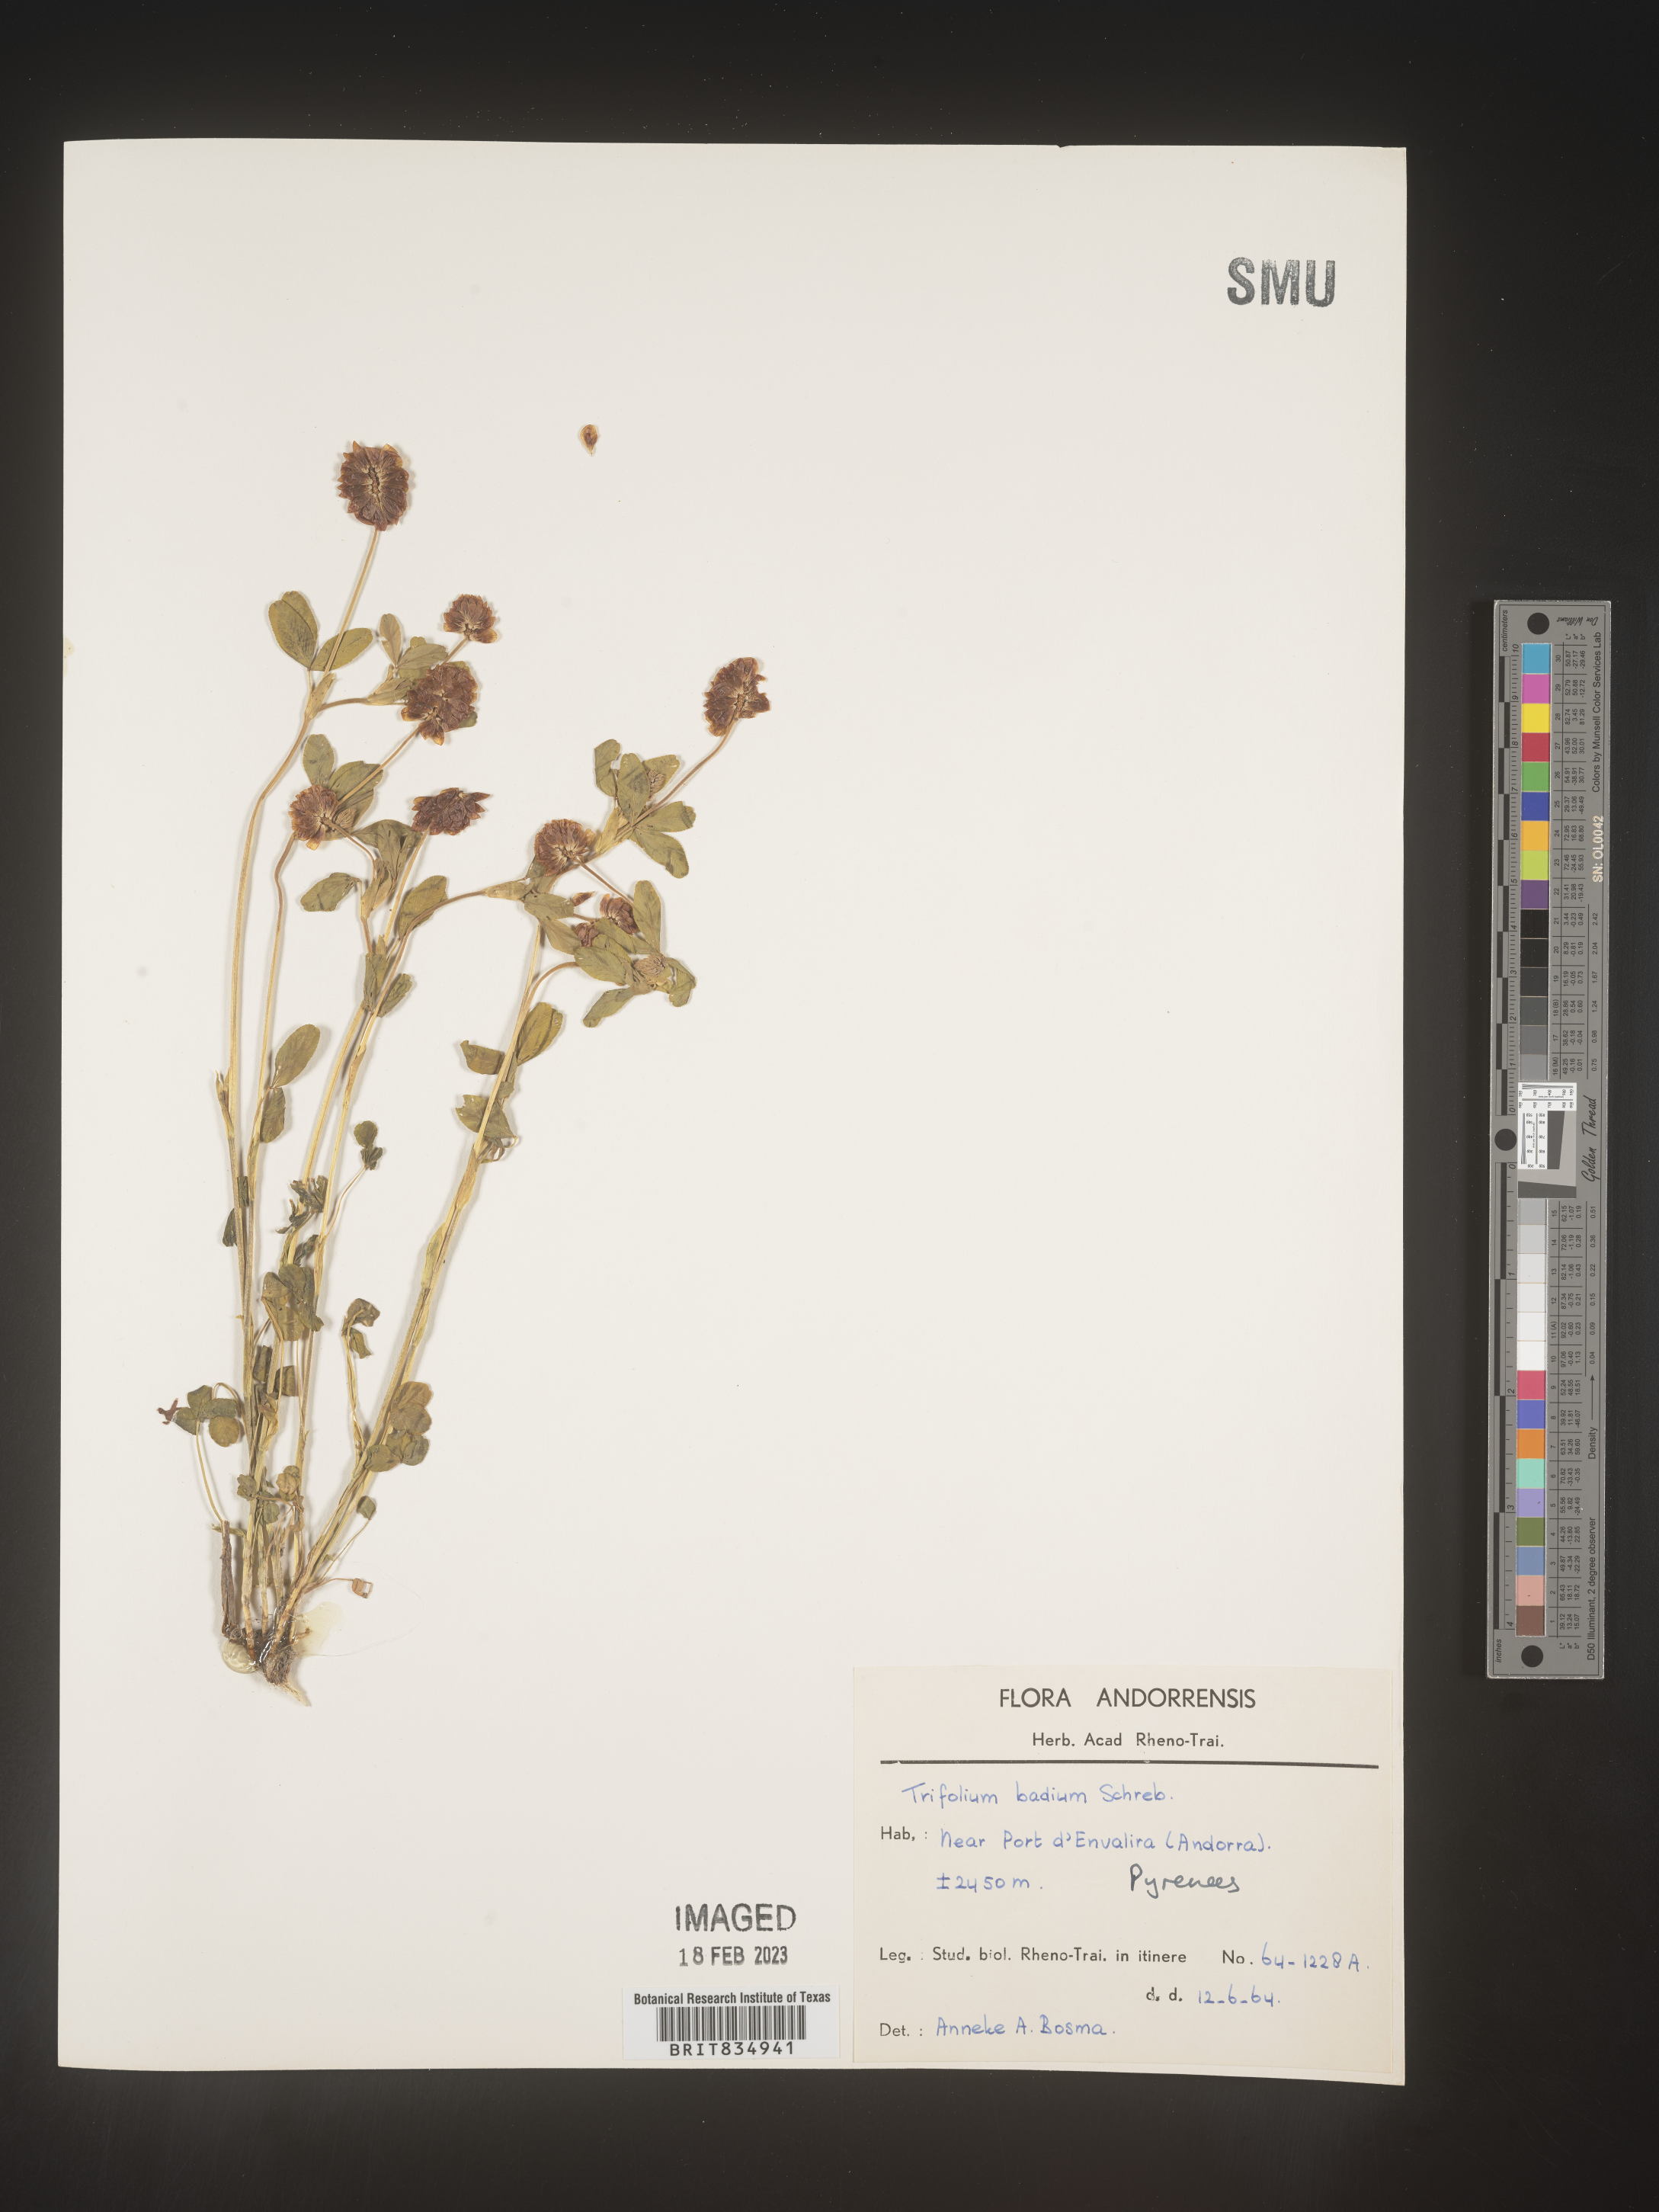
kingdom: Plantae
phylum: Tracheophyta
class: Magnoliopsida
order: Fabales
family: Fabaceae
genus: Trifolium
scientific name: Trifolium
